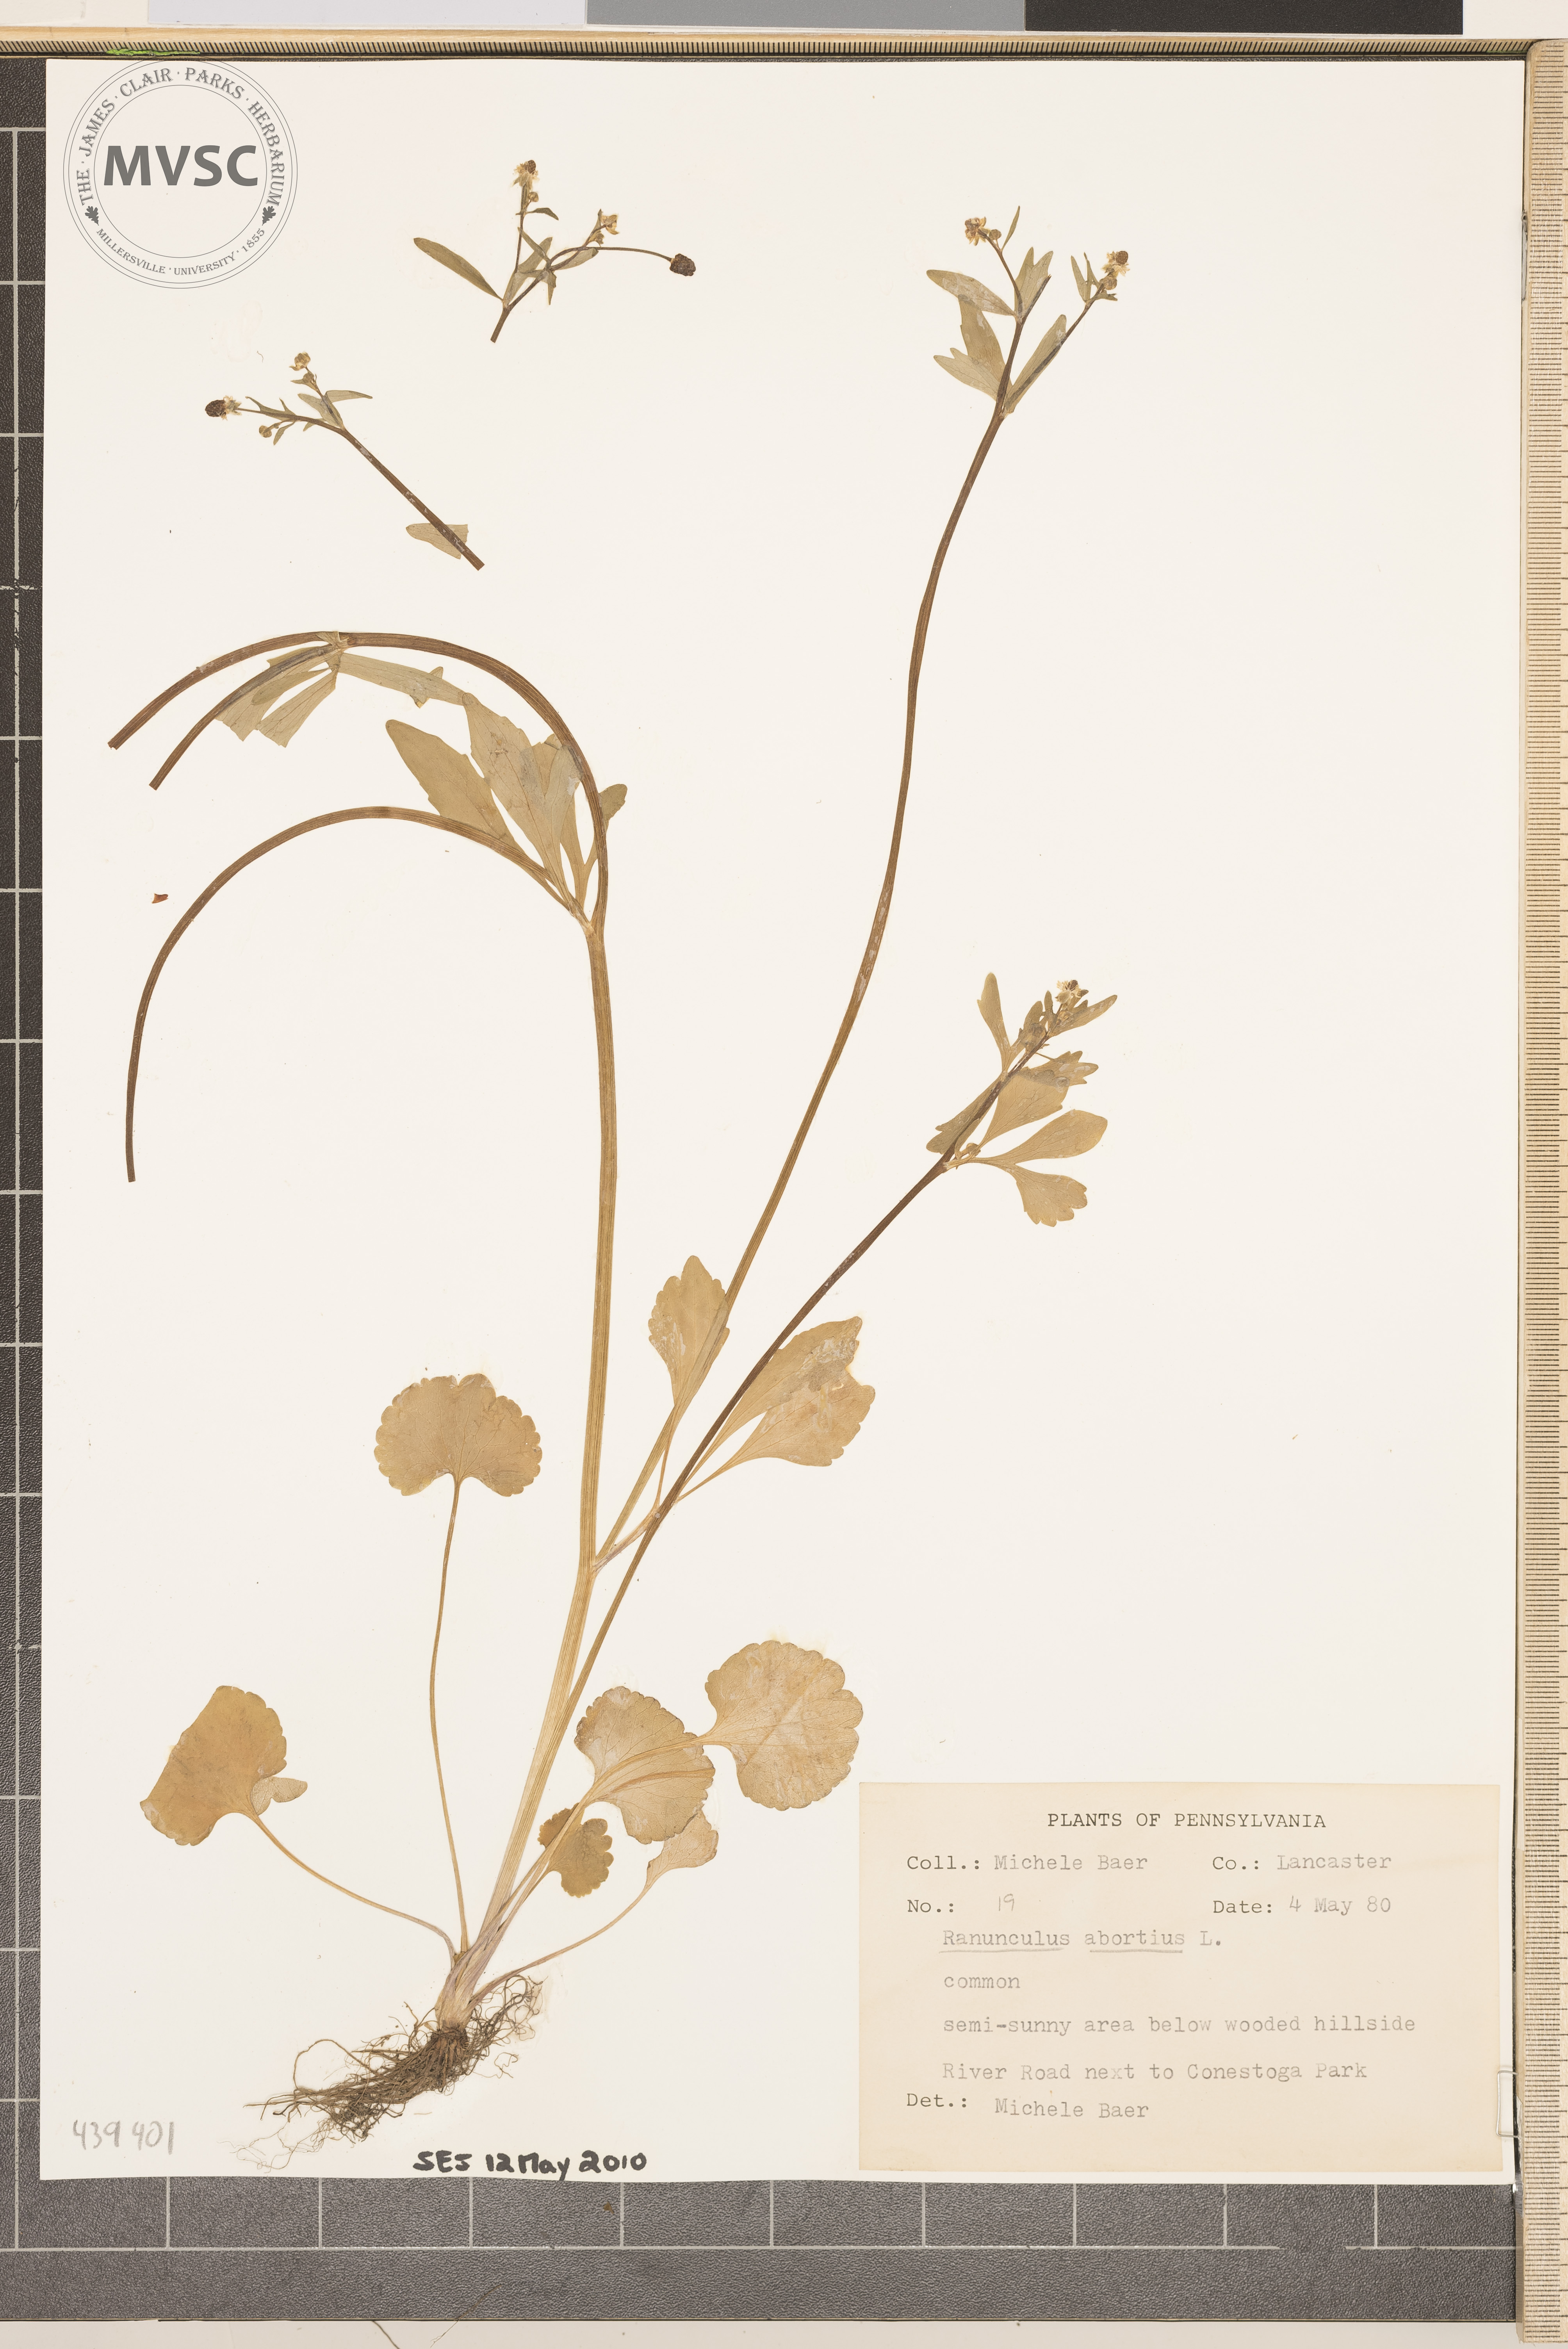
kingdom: Plantae
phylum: Tracheophyta
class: Magnoliopsida
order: Ranunculales
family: Ranunculaceae
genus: Ranunculus
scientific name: Ranunculus abortivus
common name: Early wood buttercup
